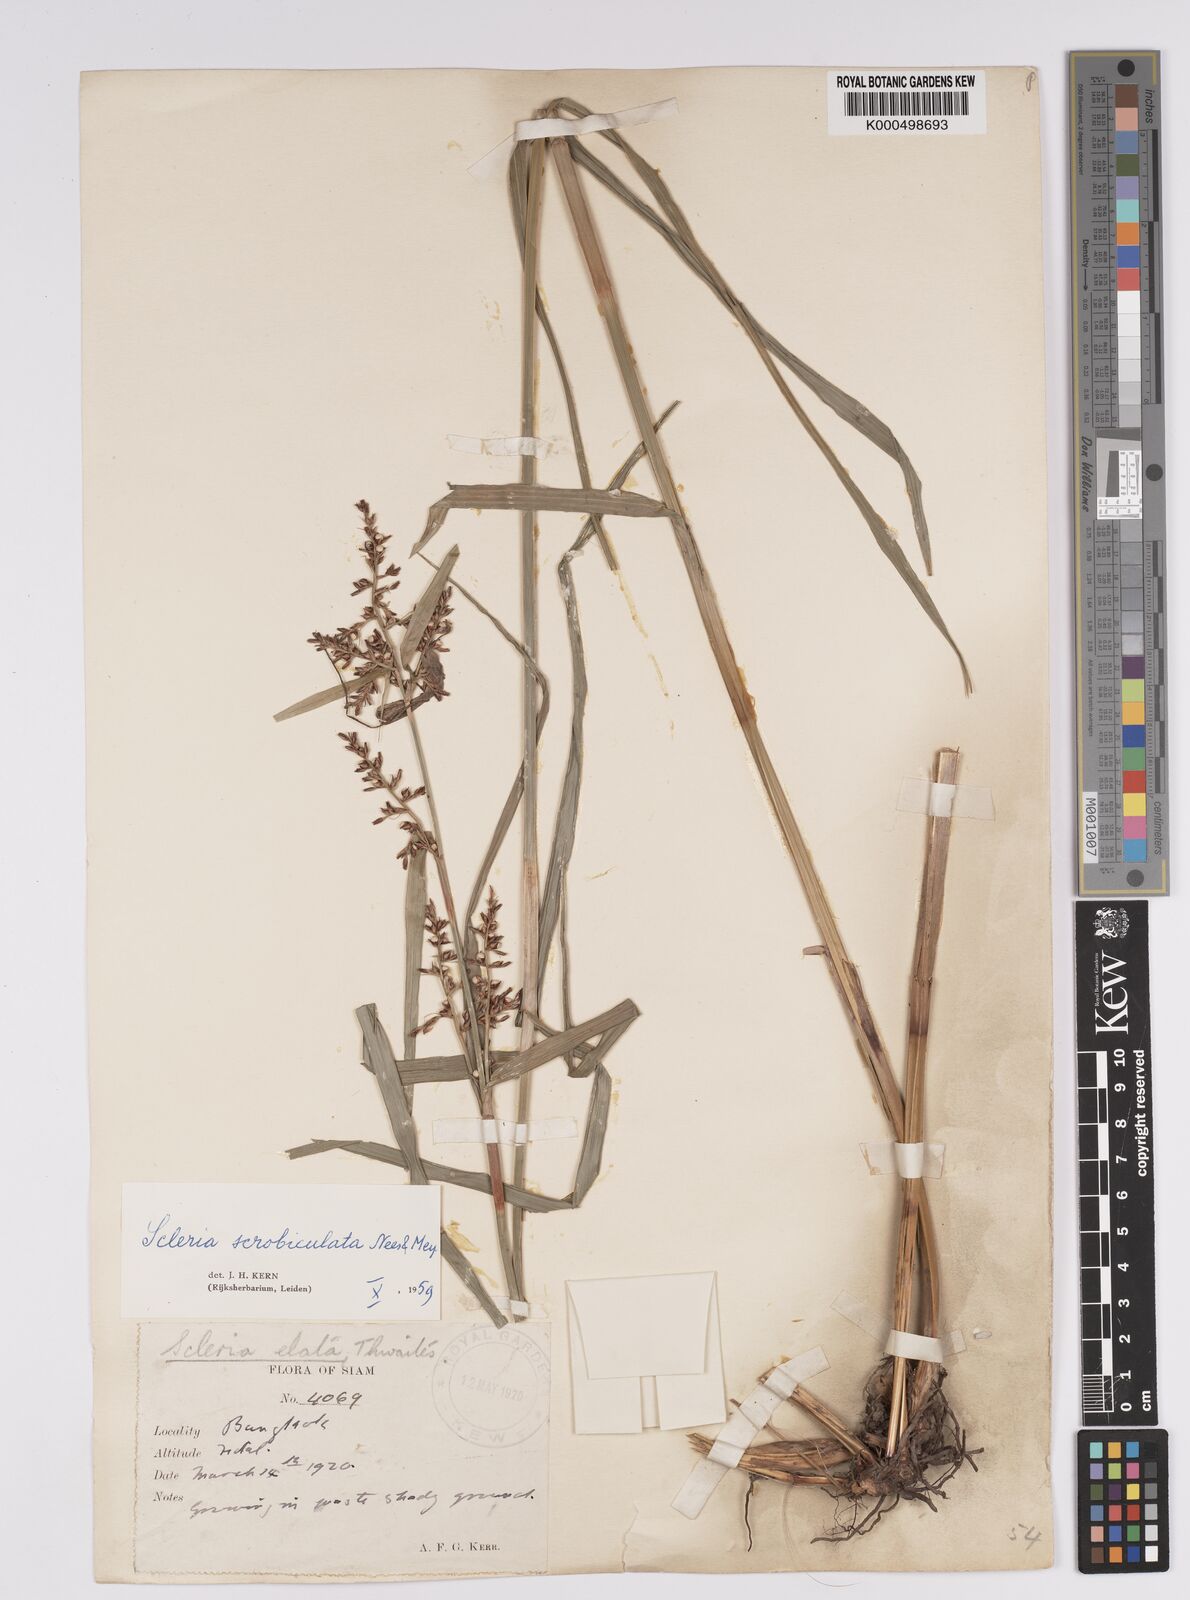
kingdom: Plantae
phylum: Tracheophyta
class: Liliopsida
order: Poales
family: Cyperaceae
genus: Scleria
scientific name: Scleria scrobiculata
